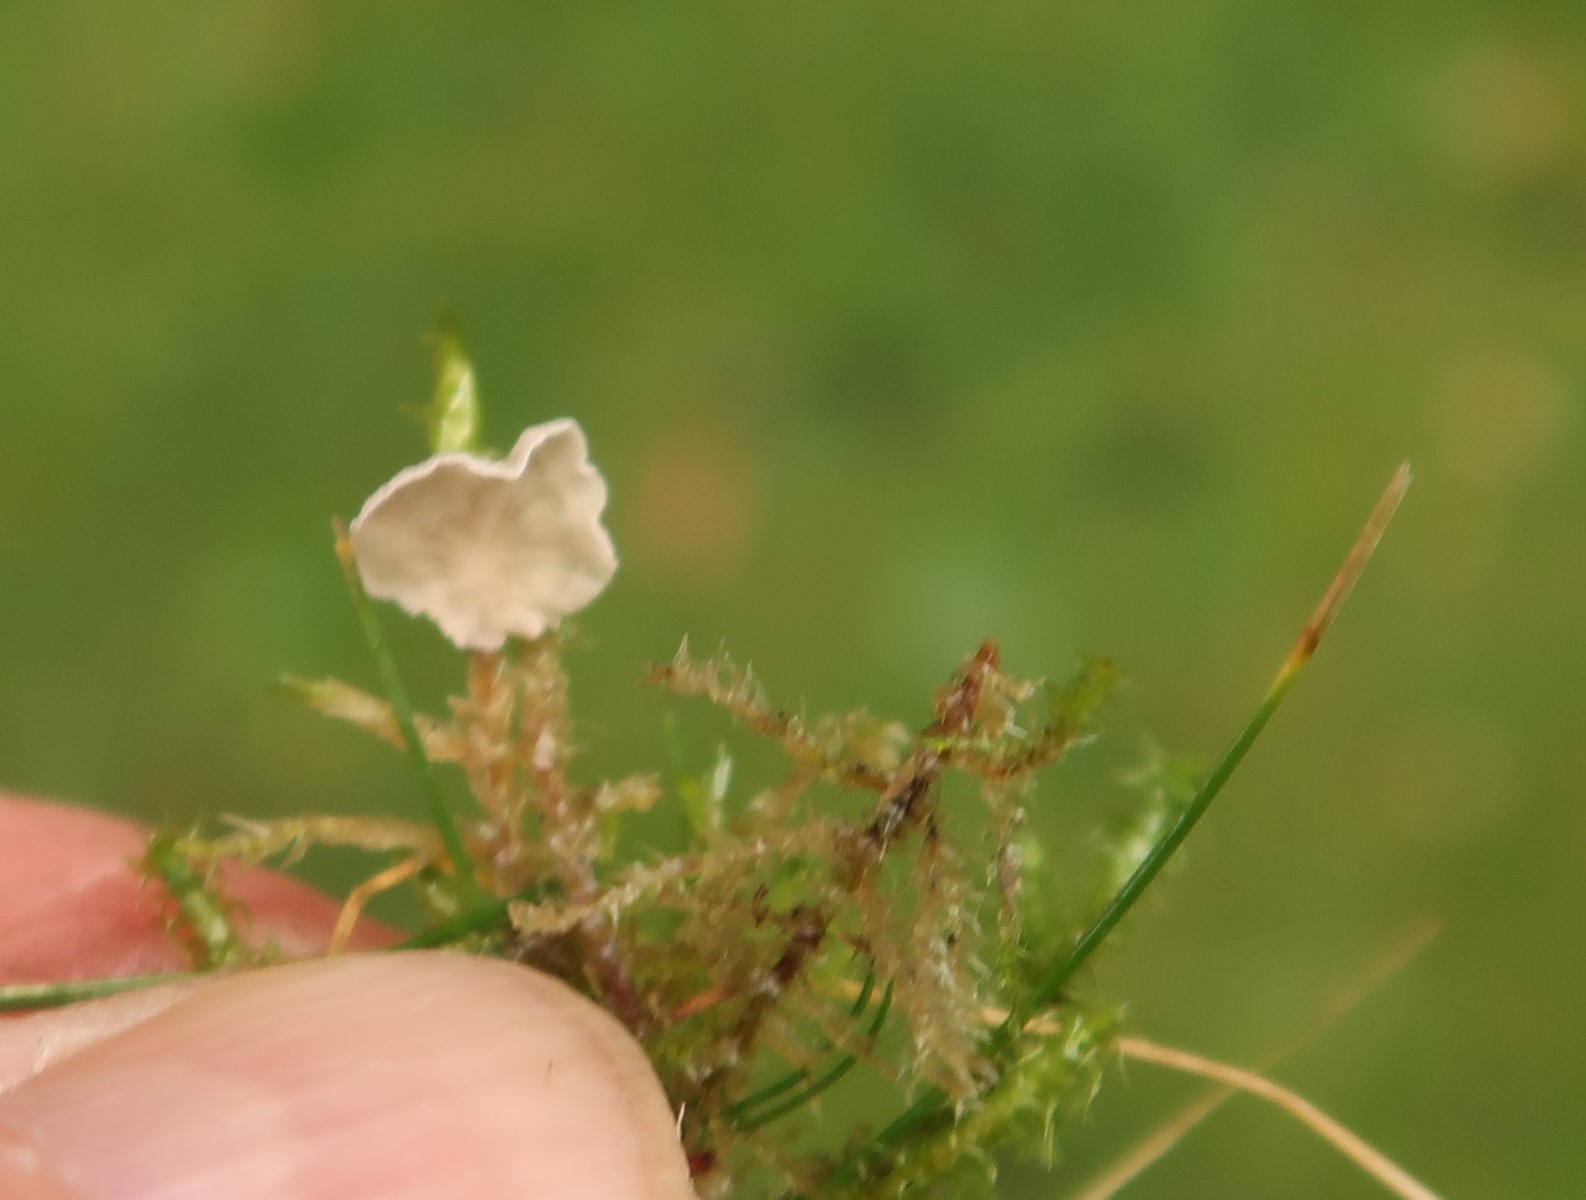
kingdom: Fungi
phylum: Basidiomycota
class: Agaricomycetes
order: Agaricales
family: Hygrophoraceae
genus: Arrhenia
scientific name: Arrhenia retiruga
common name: lille fontænehat
